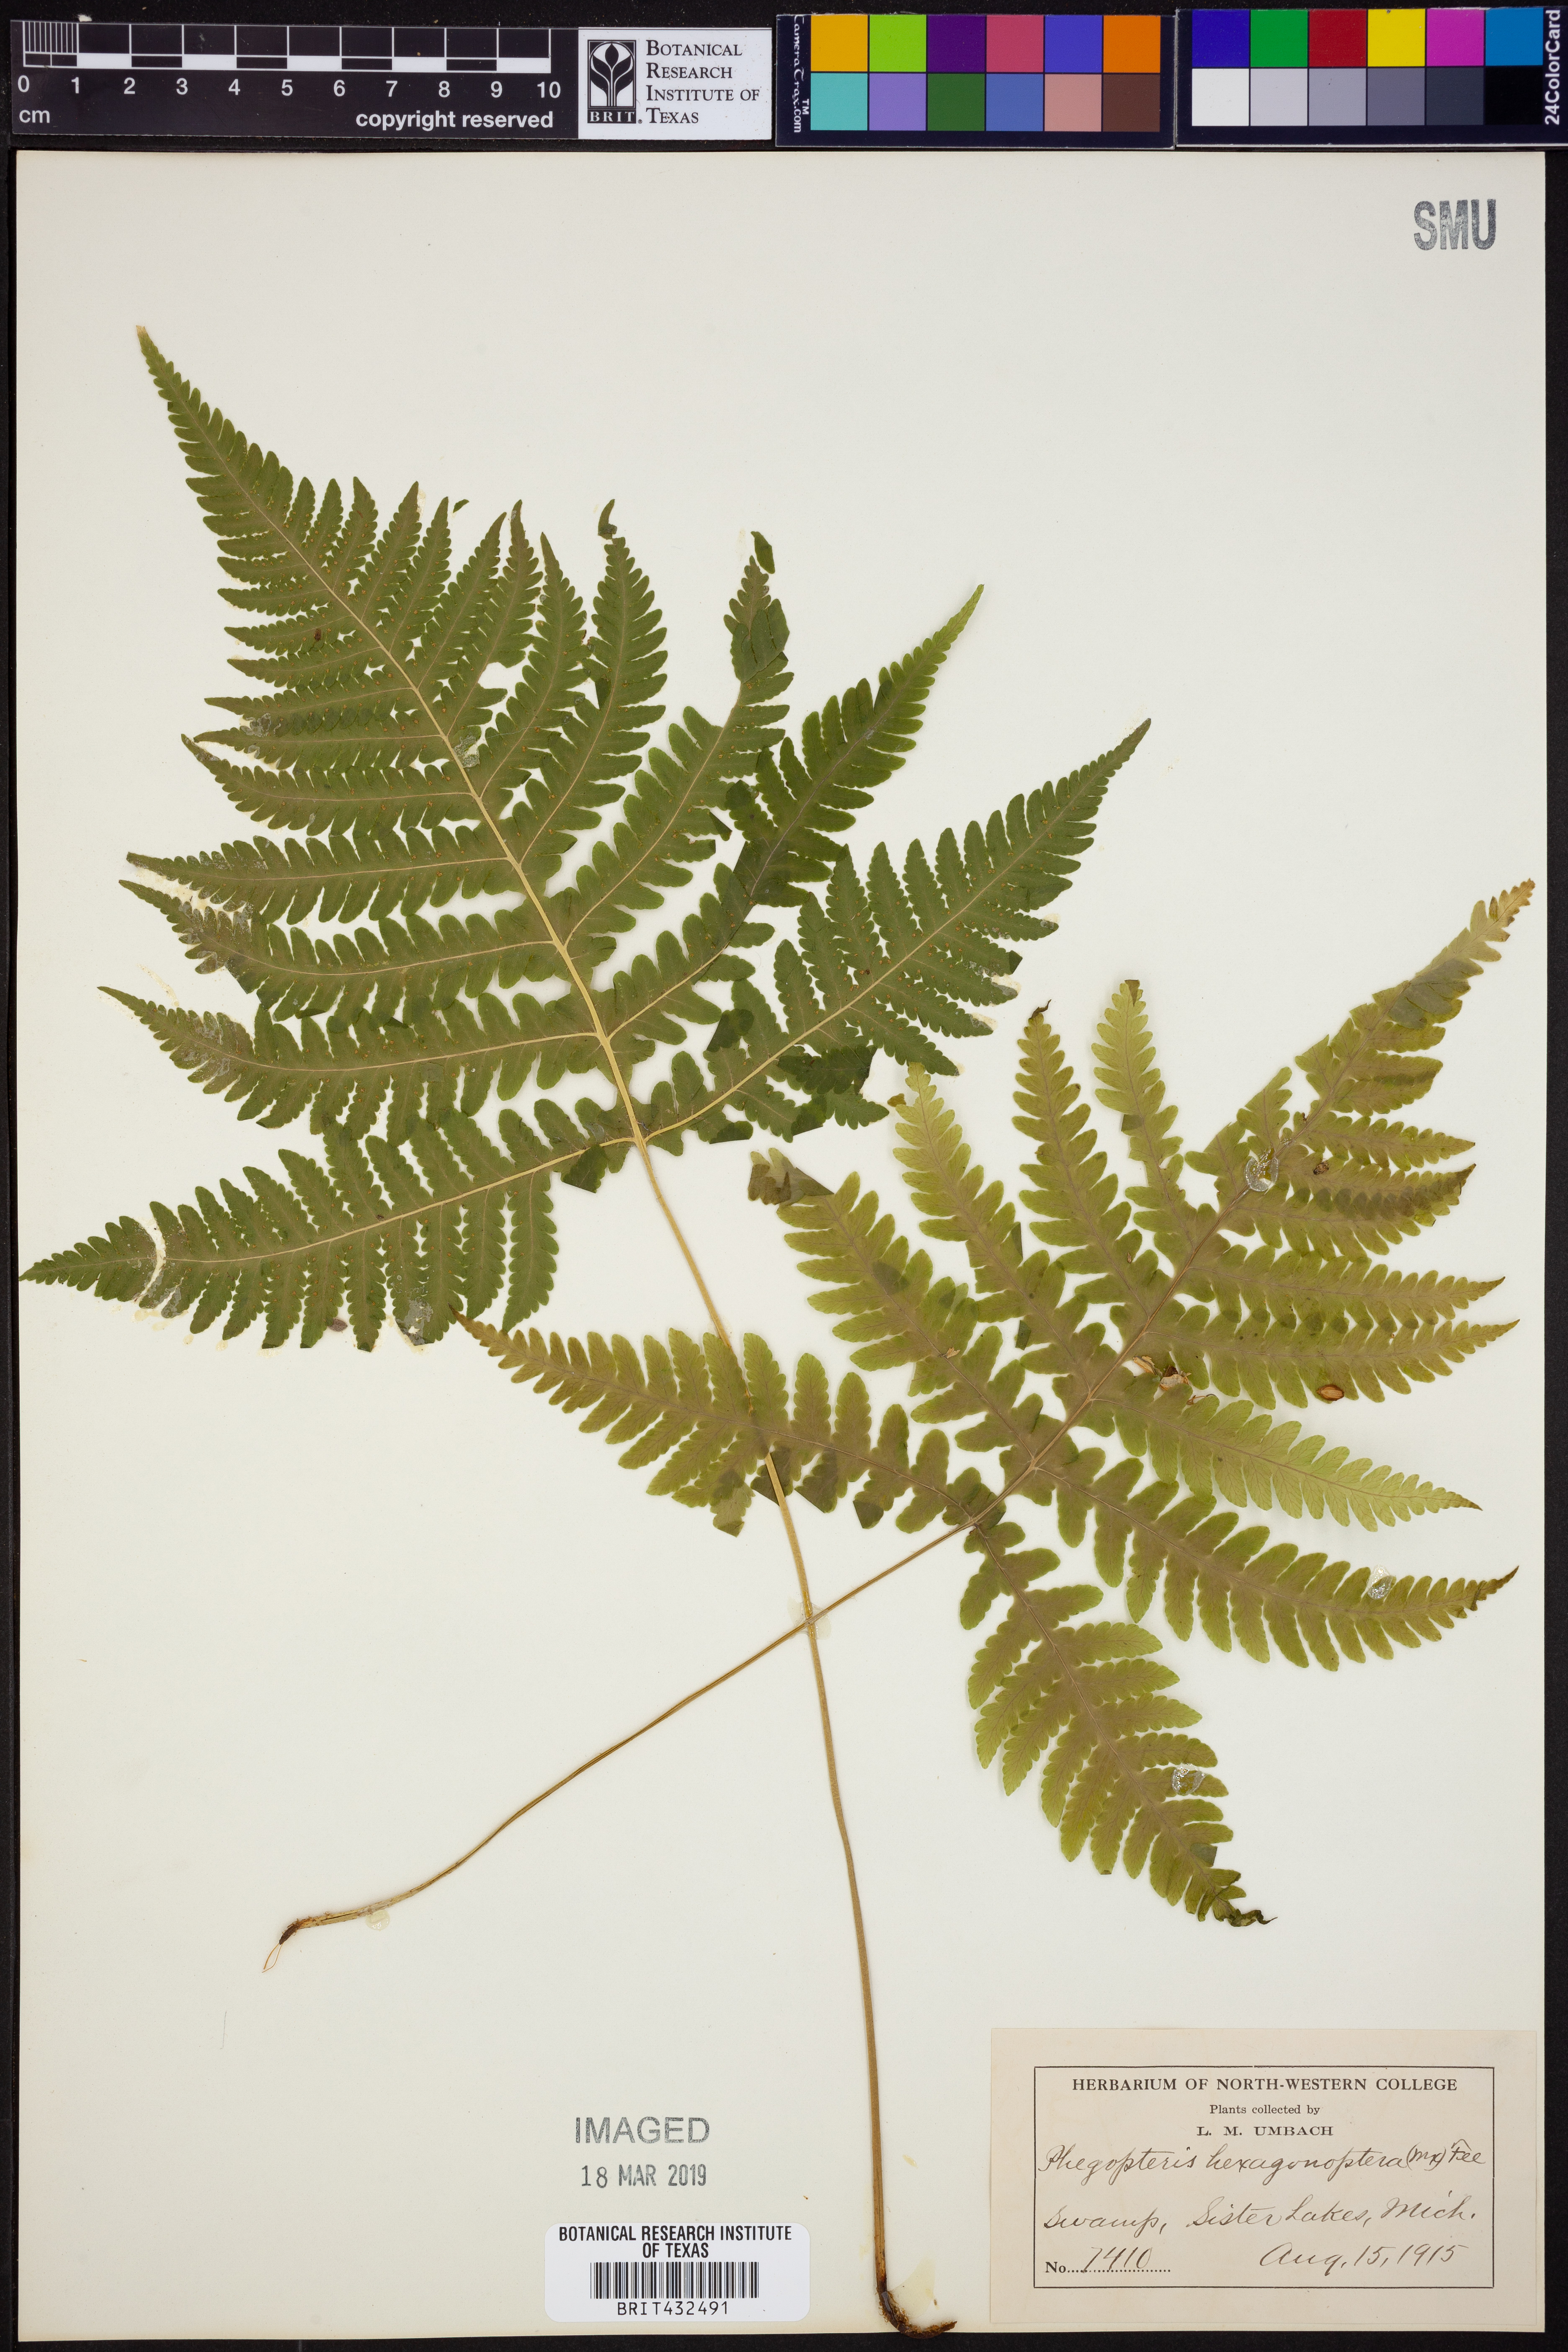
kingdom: Plantae
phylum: Tracheophyta
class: Polypodiopsida
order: Polypodiales
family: Thelypteridaceae
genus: Phegopteris
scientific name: Phegopteris hexagonoptera
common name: Broad beech fern
